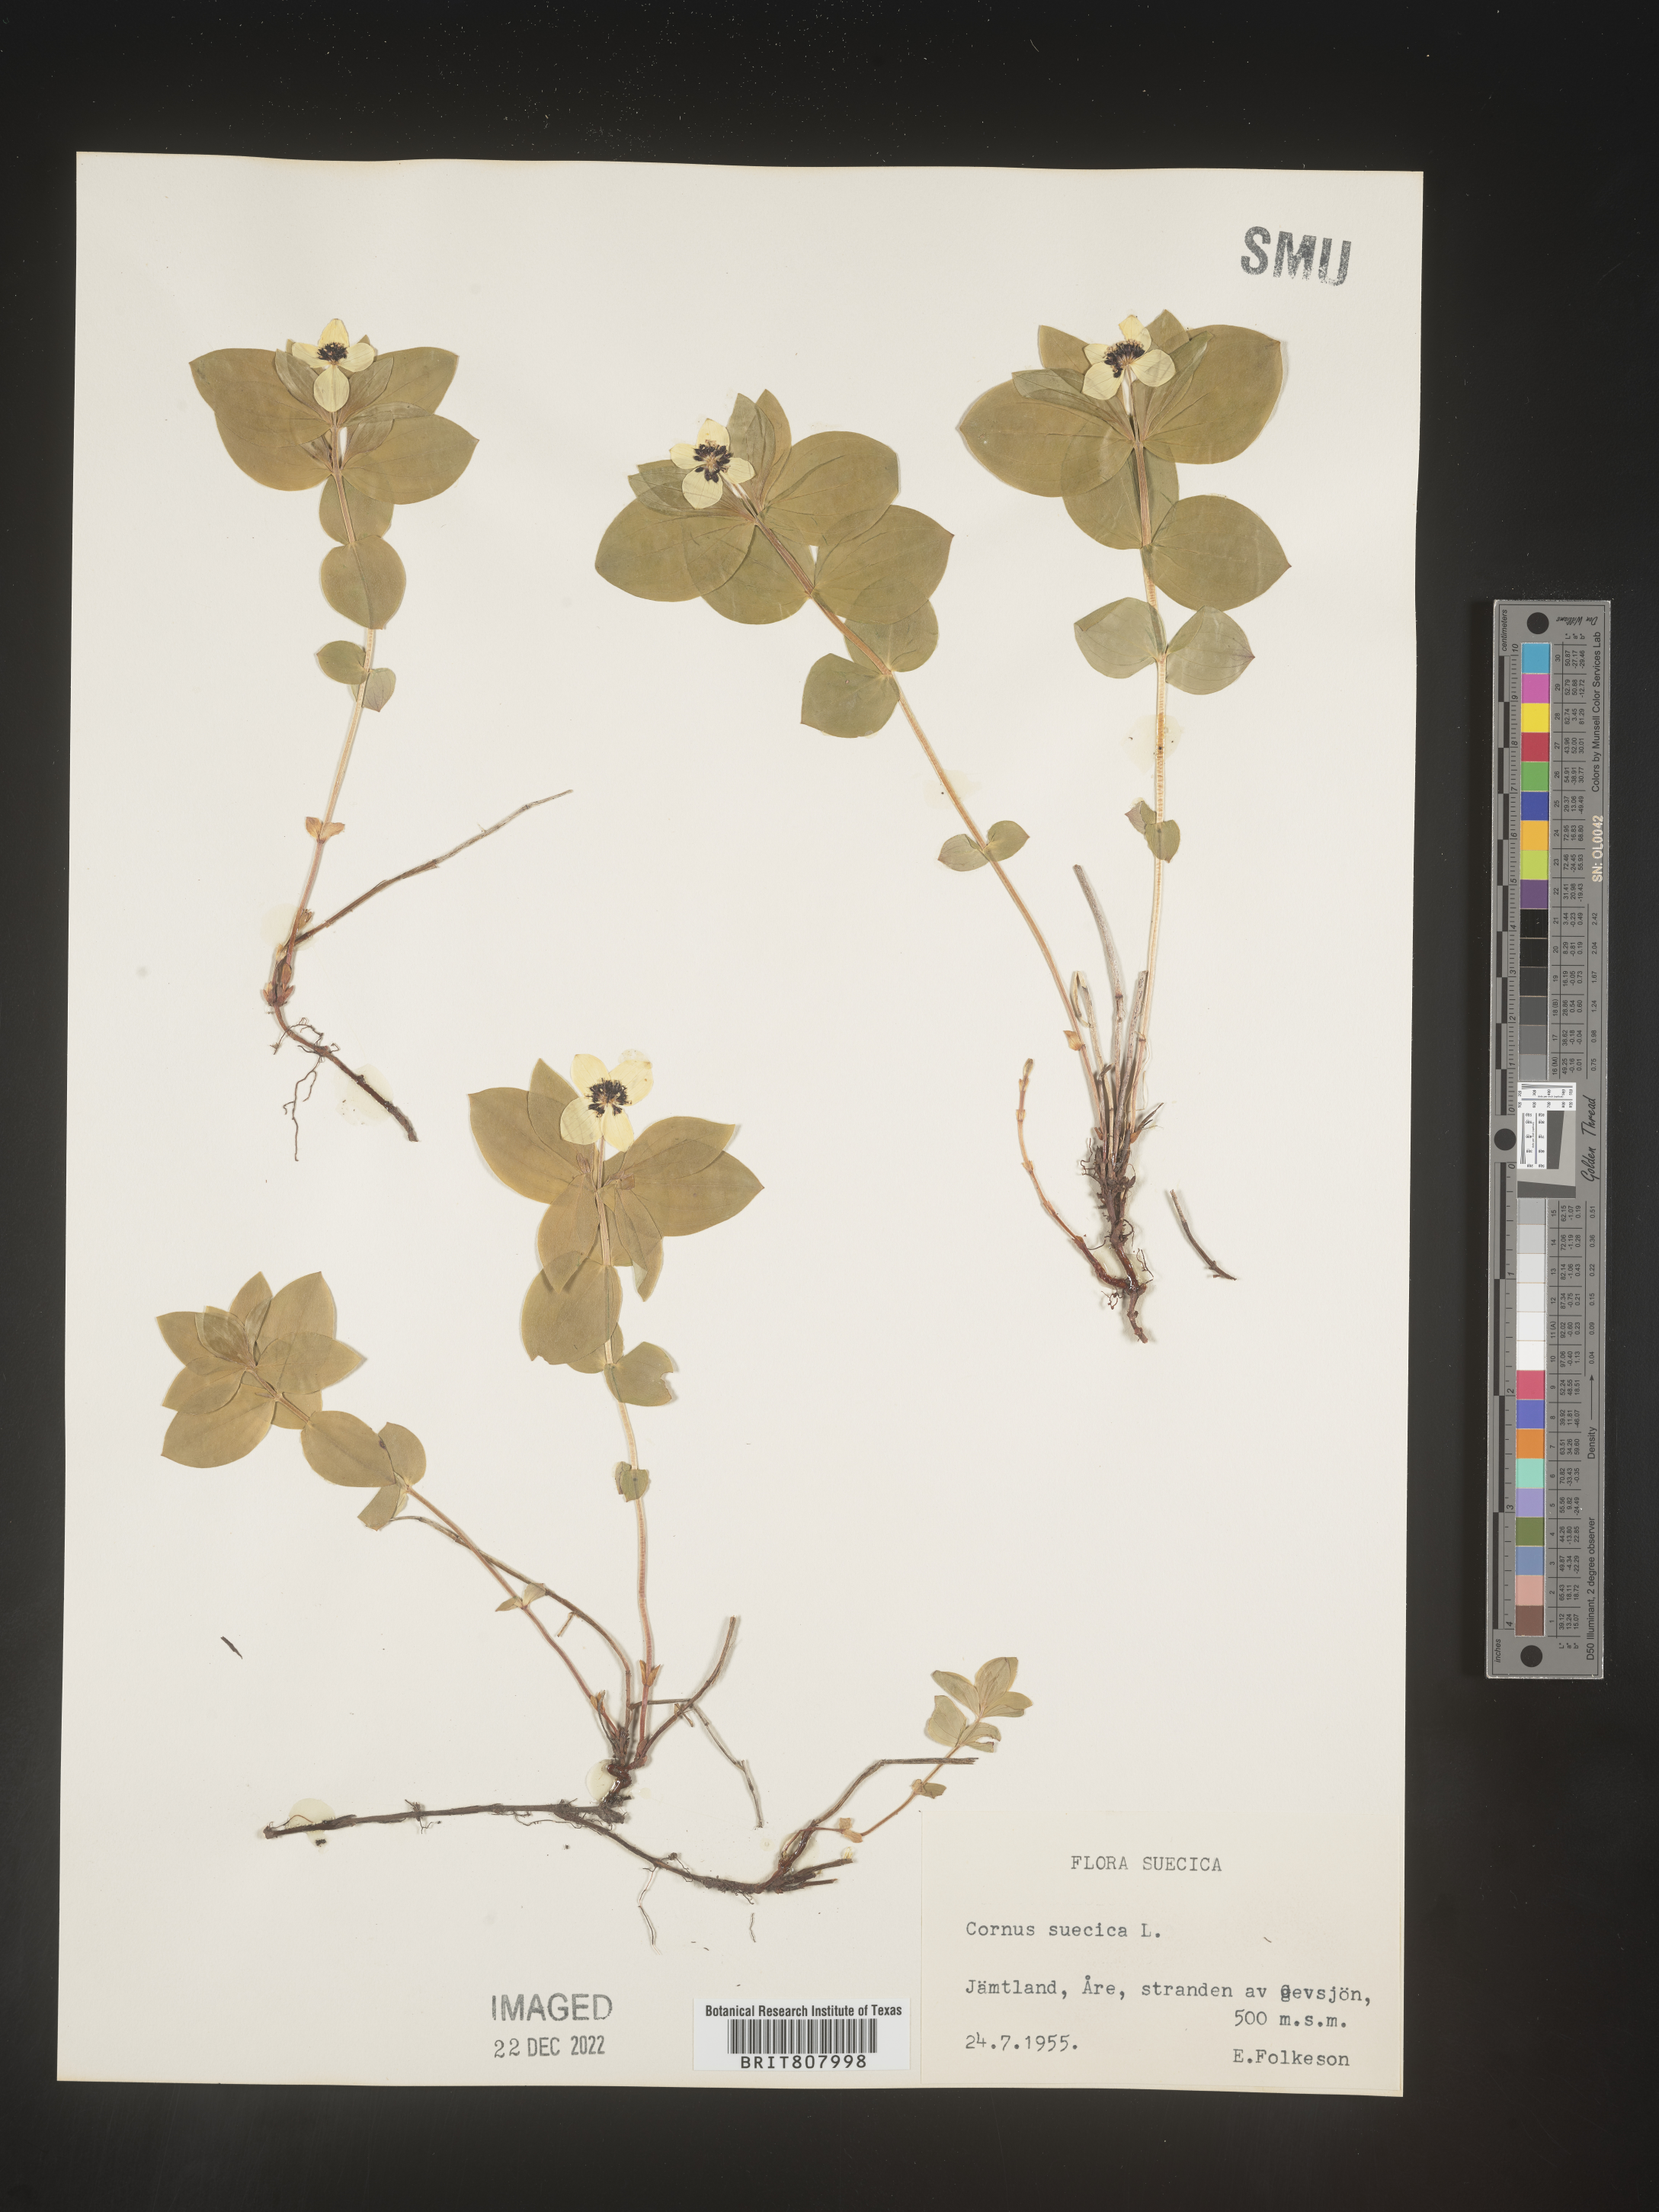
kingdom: Plantae
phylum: Tracheophyta
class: Magnoliopsida
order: Cornales
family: Cornaceae
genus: Cornus
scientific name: Cornus
